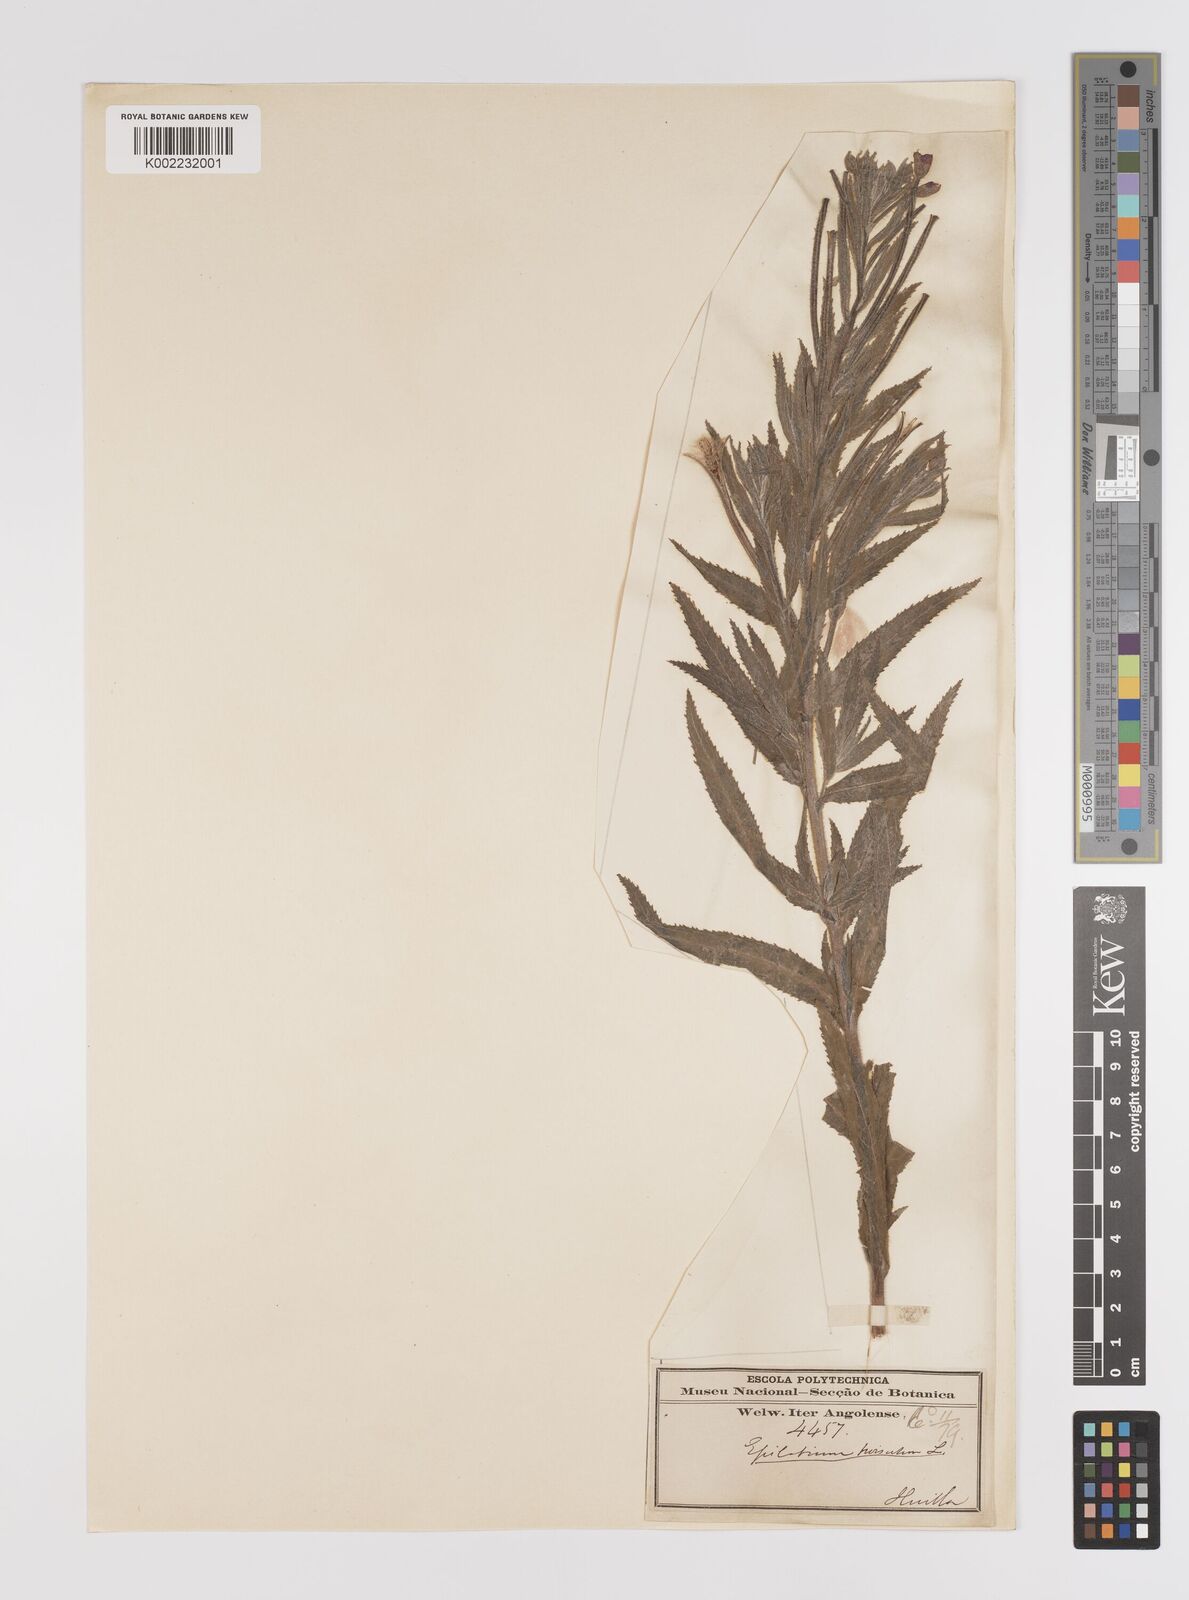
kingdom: Plantae
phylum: Tracheophyta
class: Magnoliopsida
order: Myrtales
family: Onagraceae
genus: Epilobium
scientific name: Epilobium hirsutum
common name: Great willowherb
